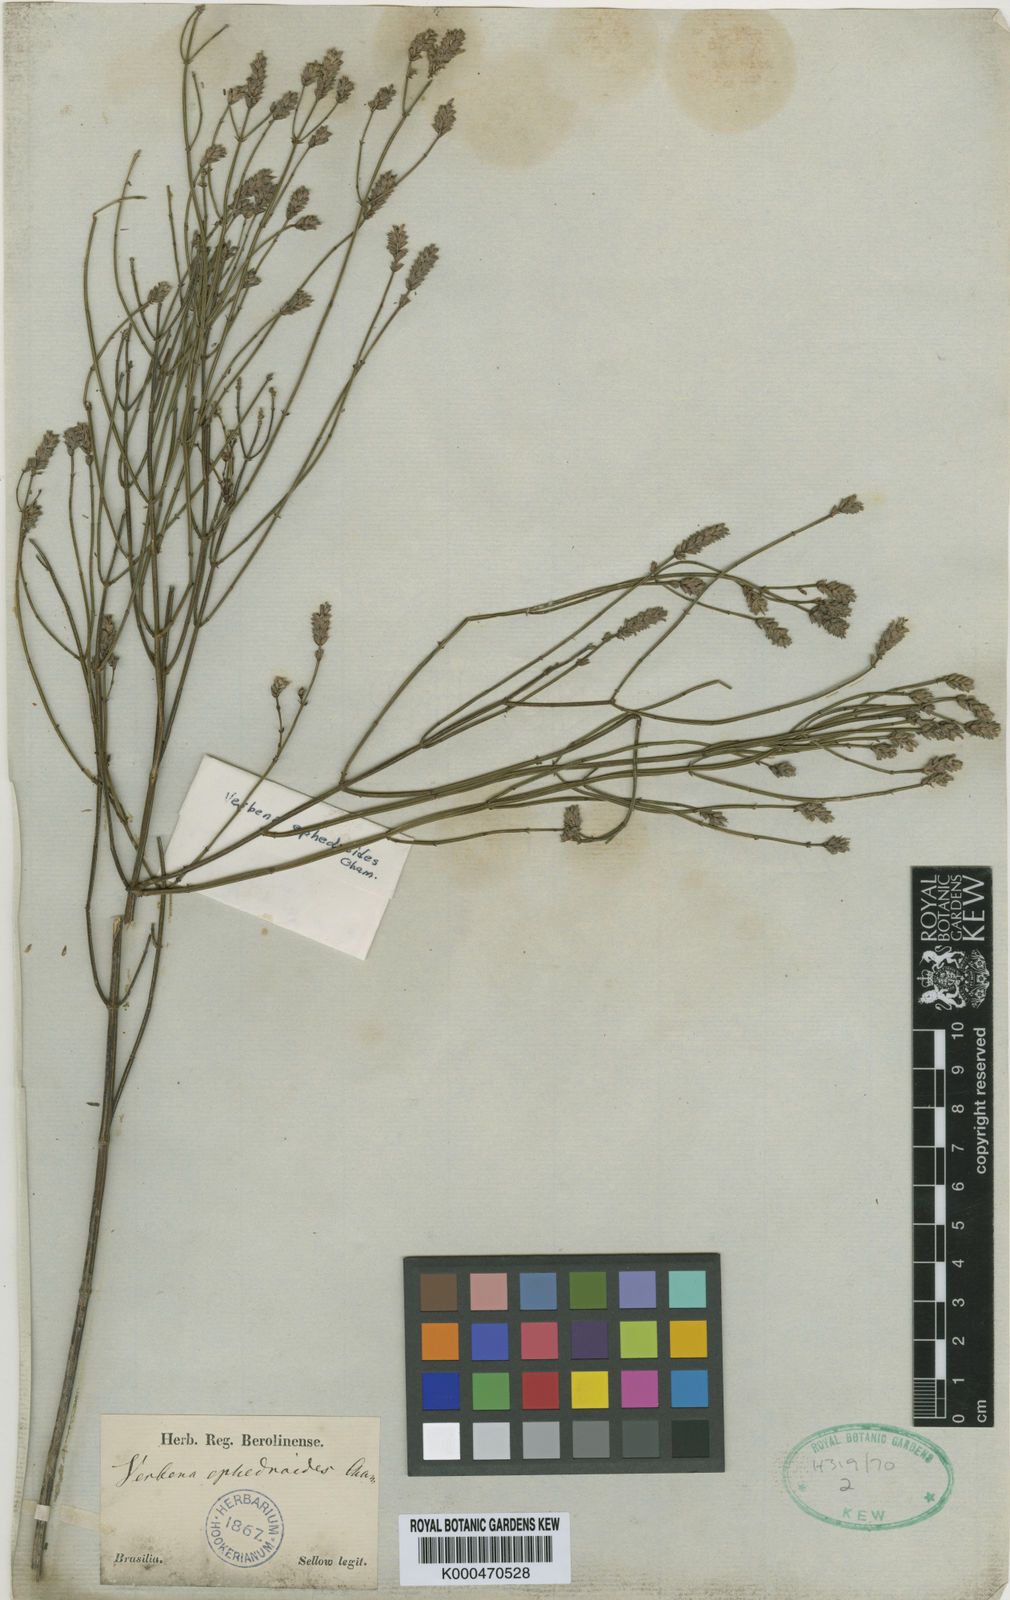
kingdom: Plantae
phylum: Tracheophyta
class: Magnoliopsida
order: Lamiales
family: Verbenaceae
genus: Verbena
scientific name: Verbena ephedroides
